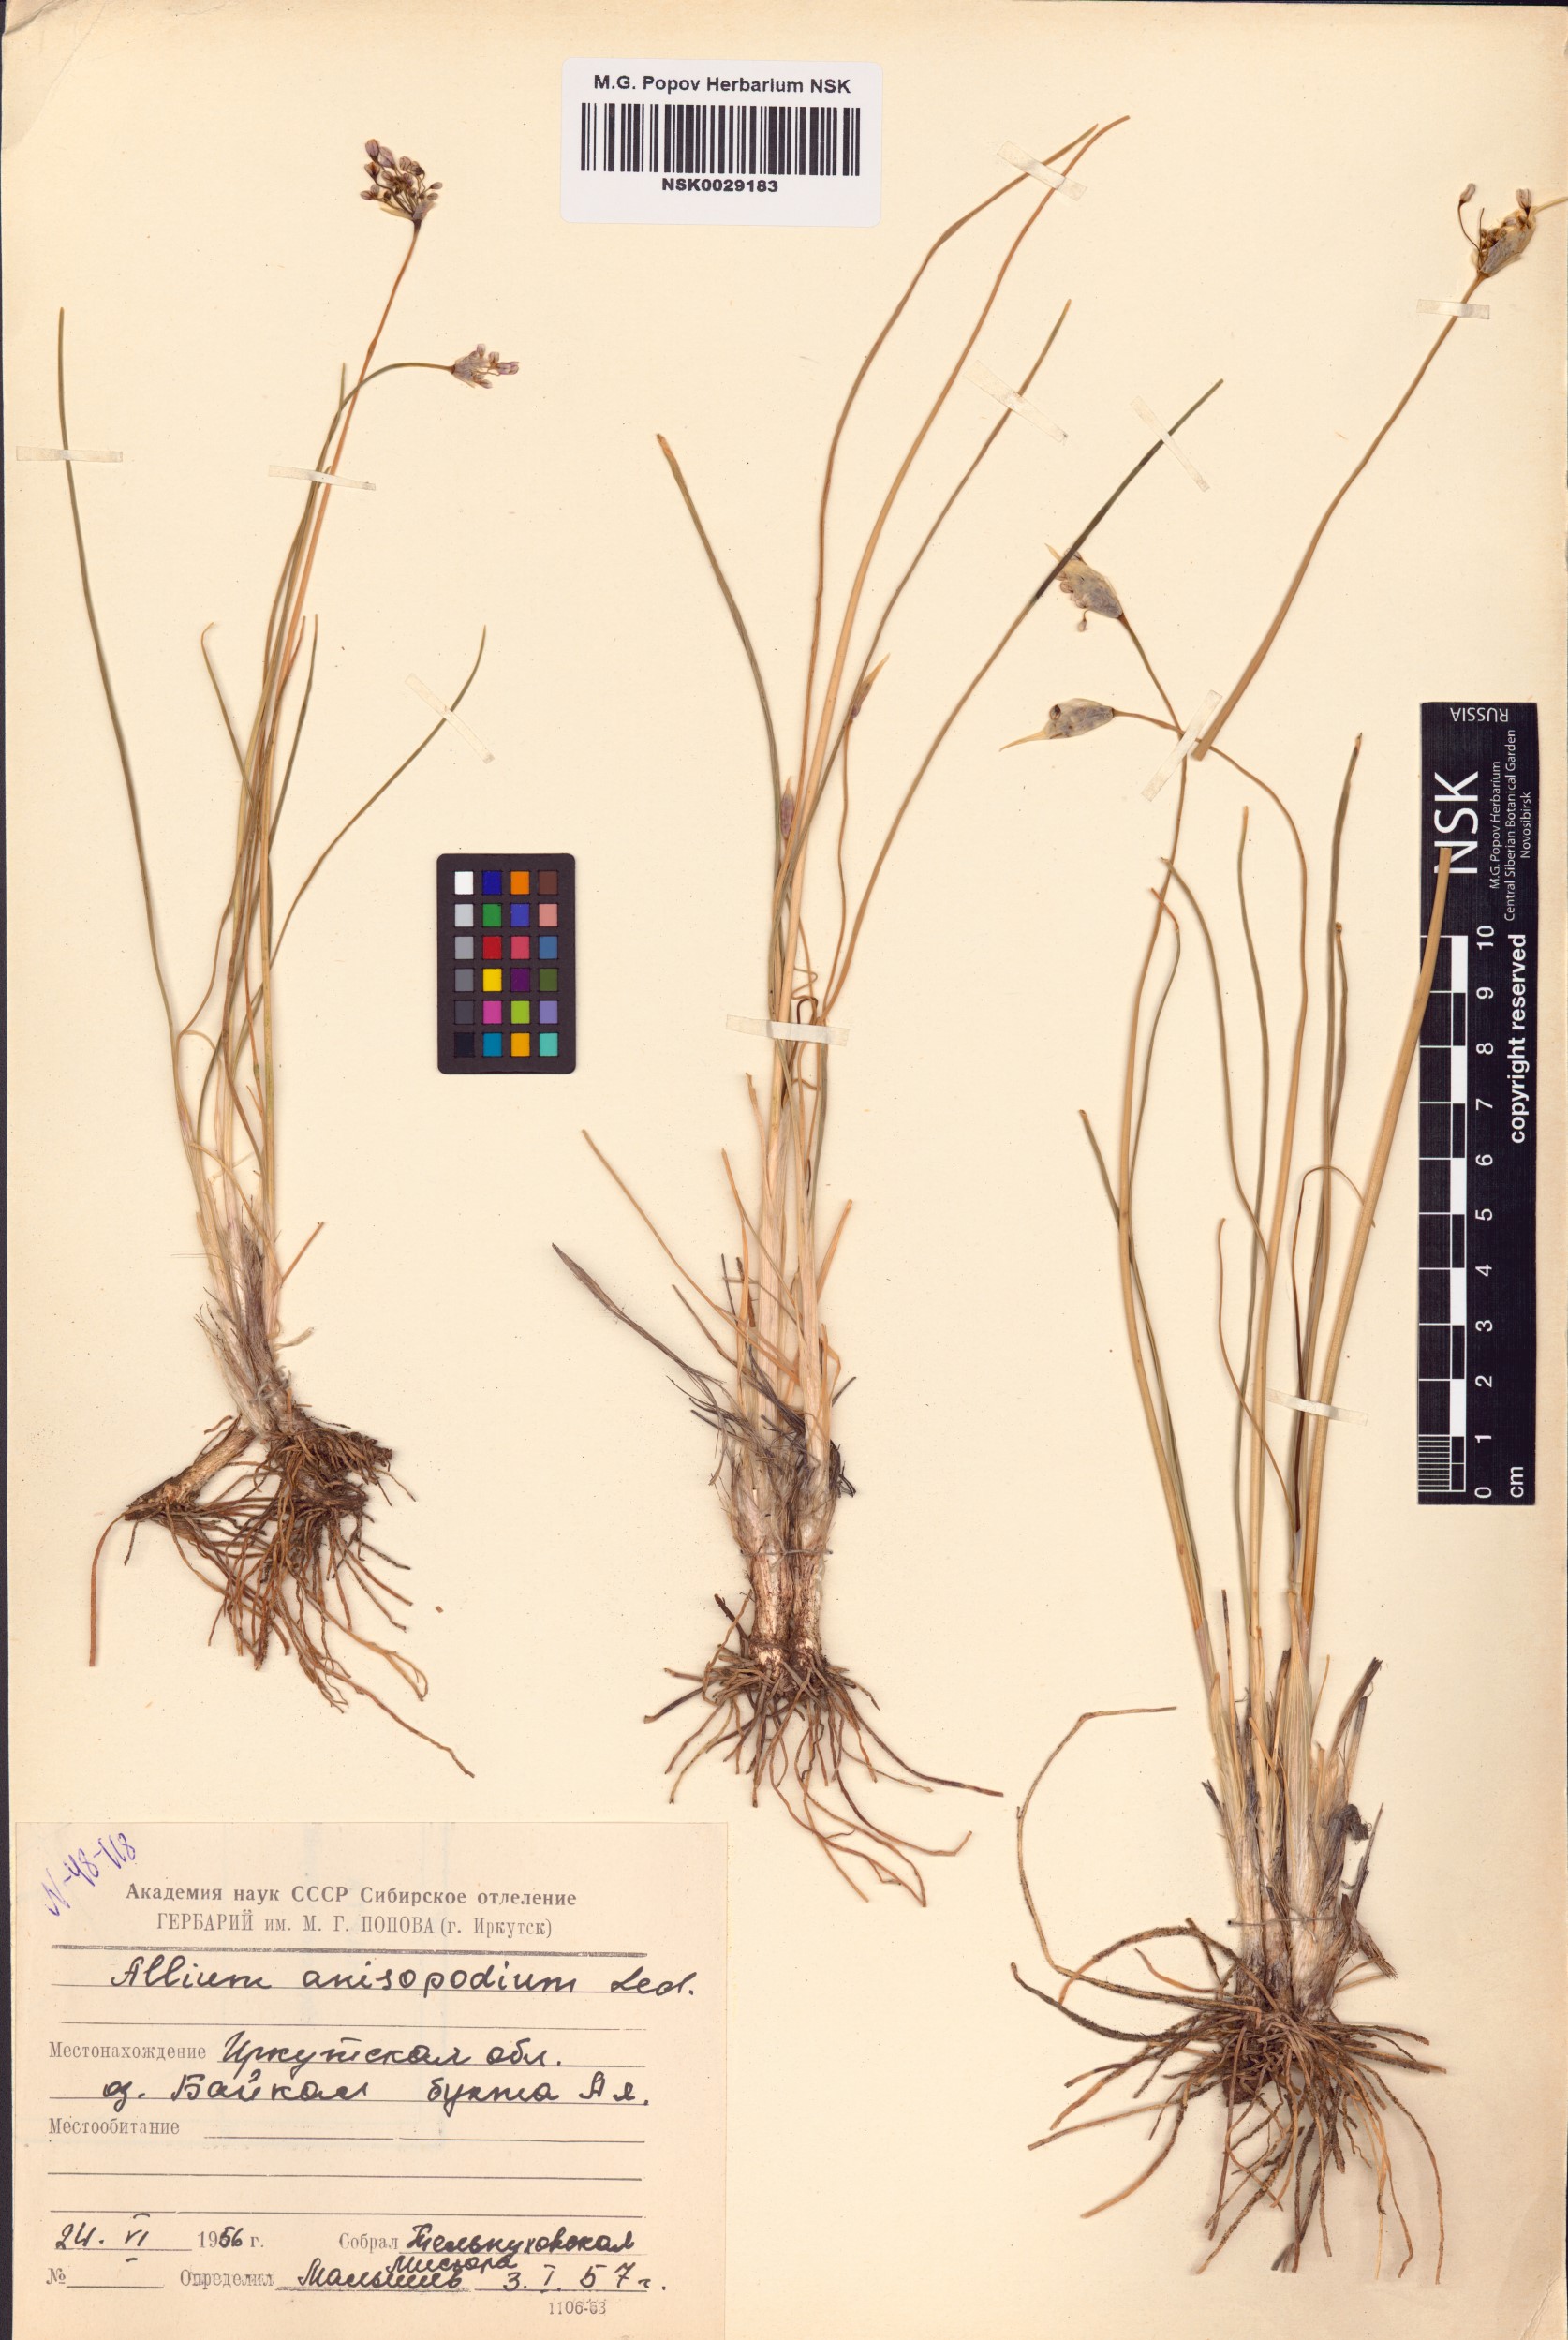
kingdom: Plantae
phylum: Tracheophyta
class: Liliopsida
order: Asparagales
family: Amaryllidaceae
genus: Allium
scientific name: Allium anisopodium
